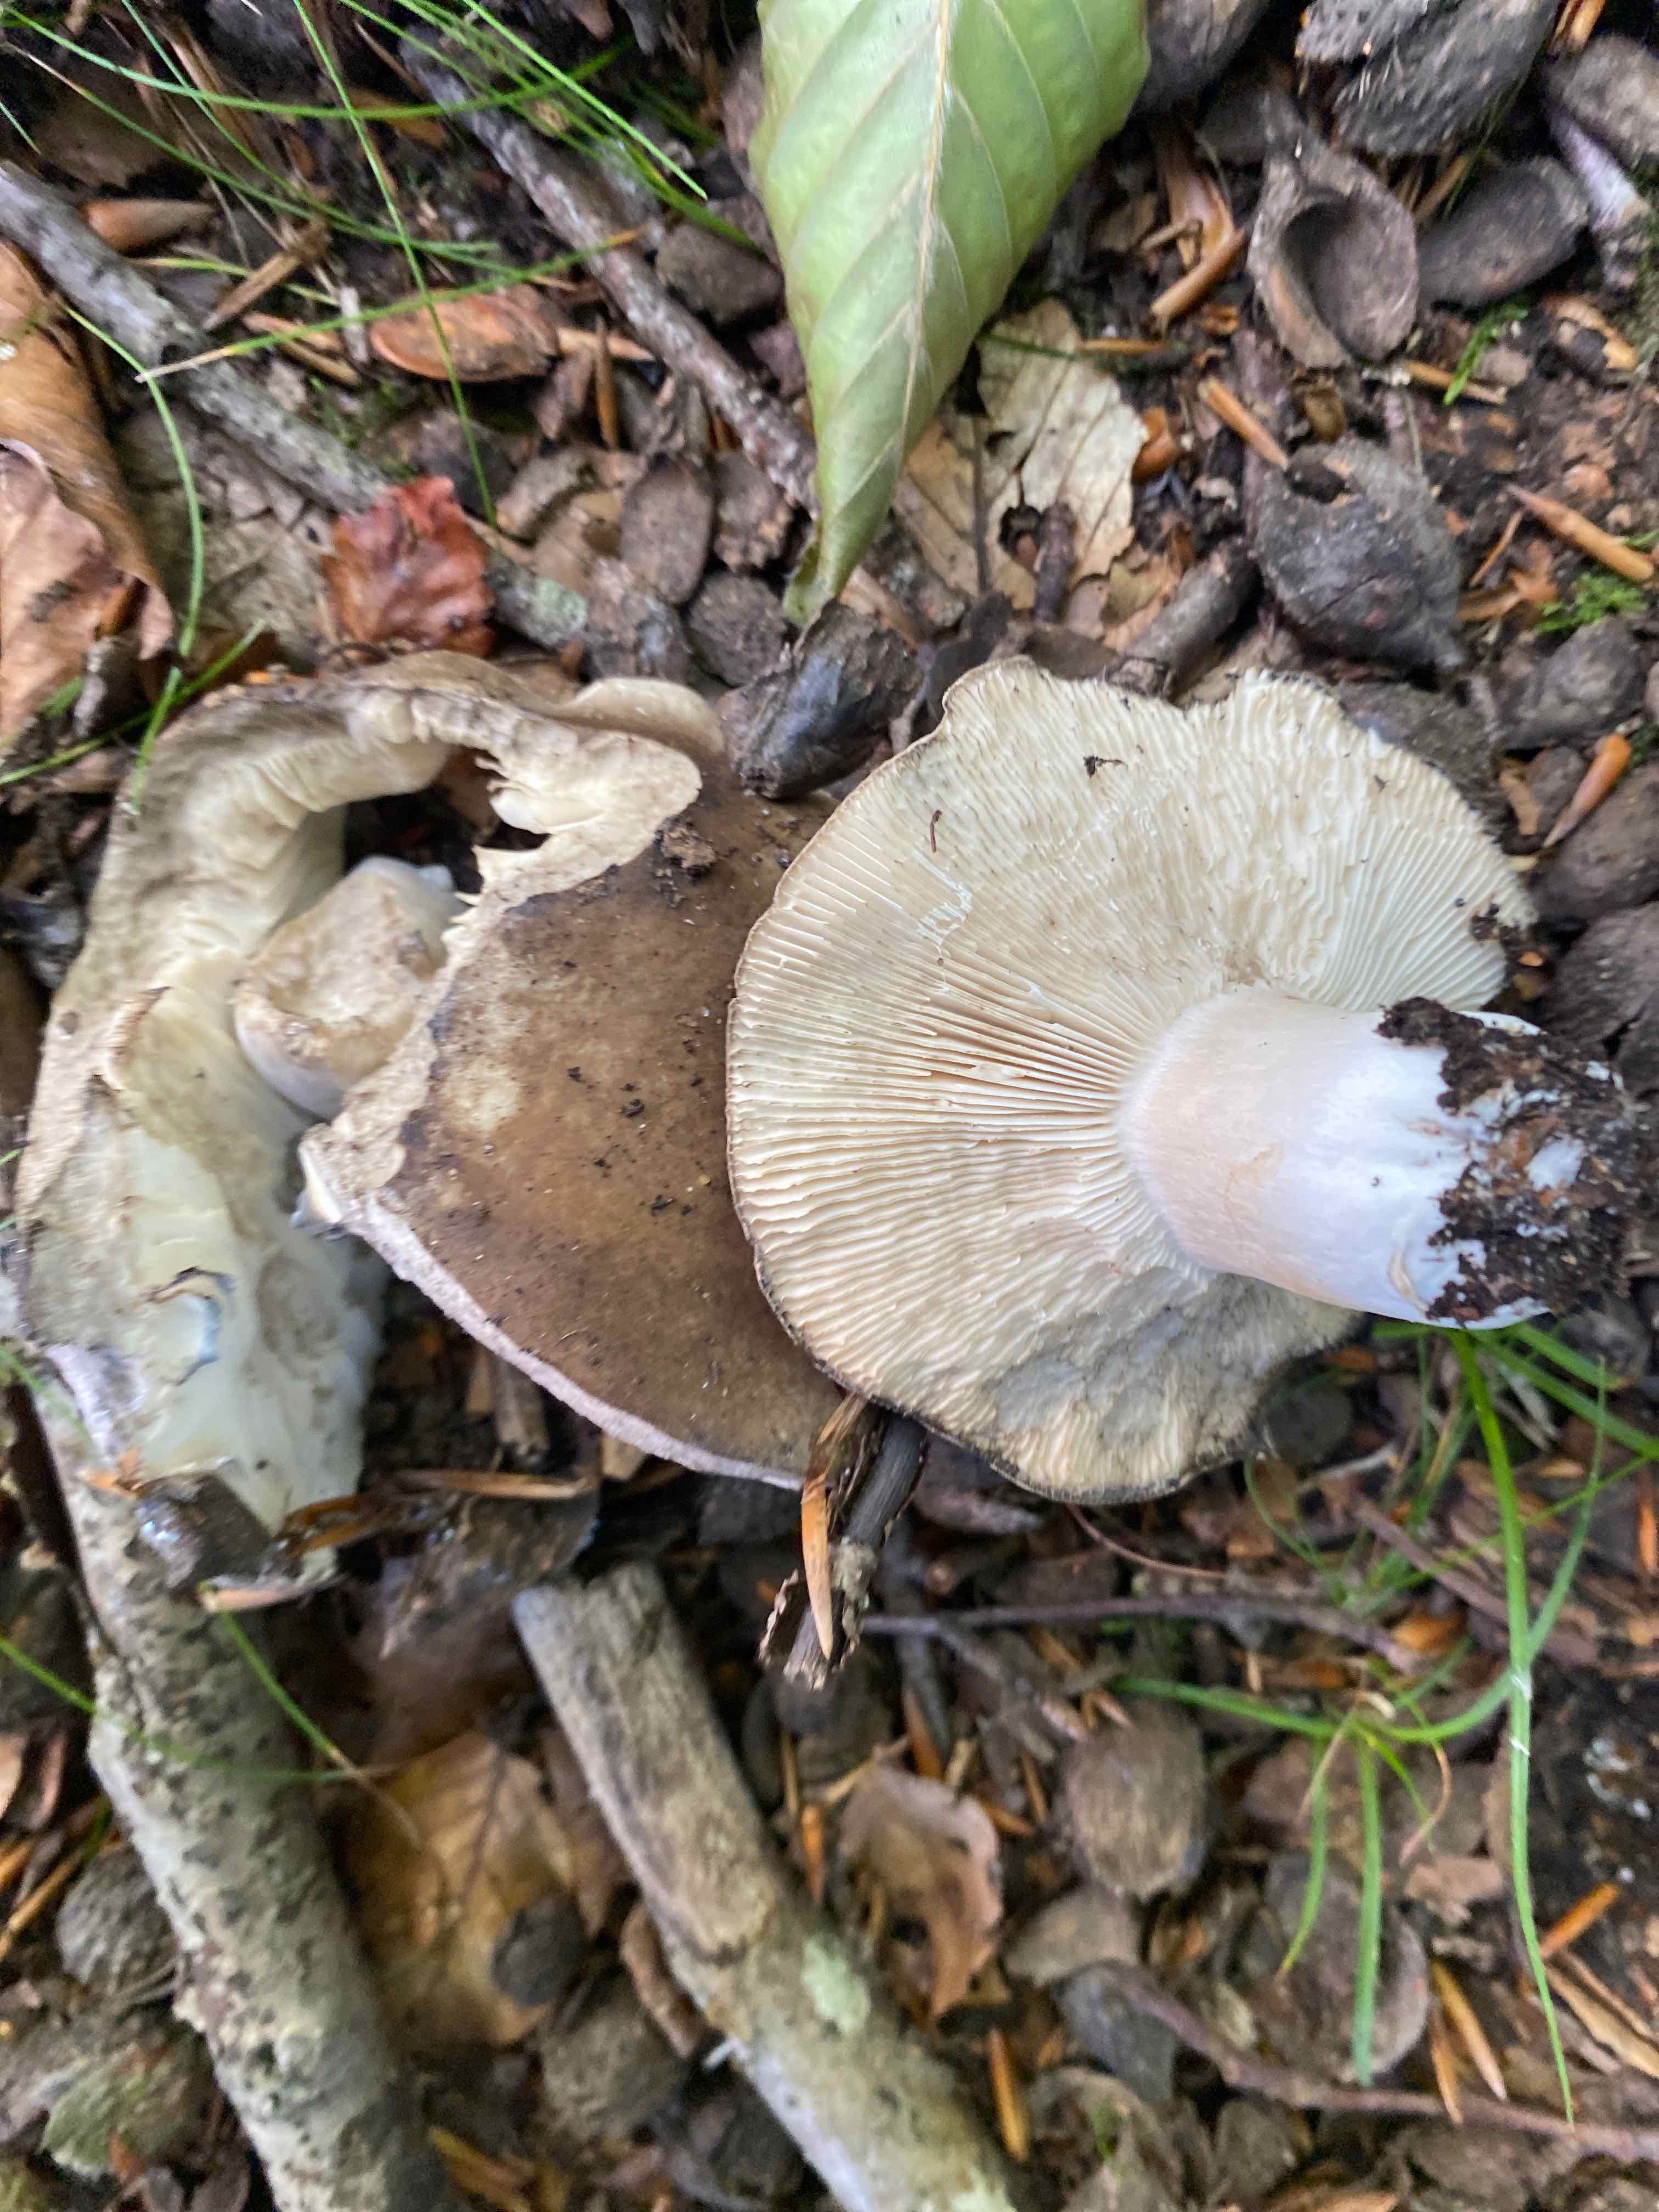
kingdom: Fungi
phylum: Basidiomycota
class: Agaricomycetes
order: Russulales
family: Russulaceae
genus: Russula
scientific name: Russula densifolia
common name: tætbladet skørhat
